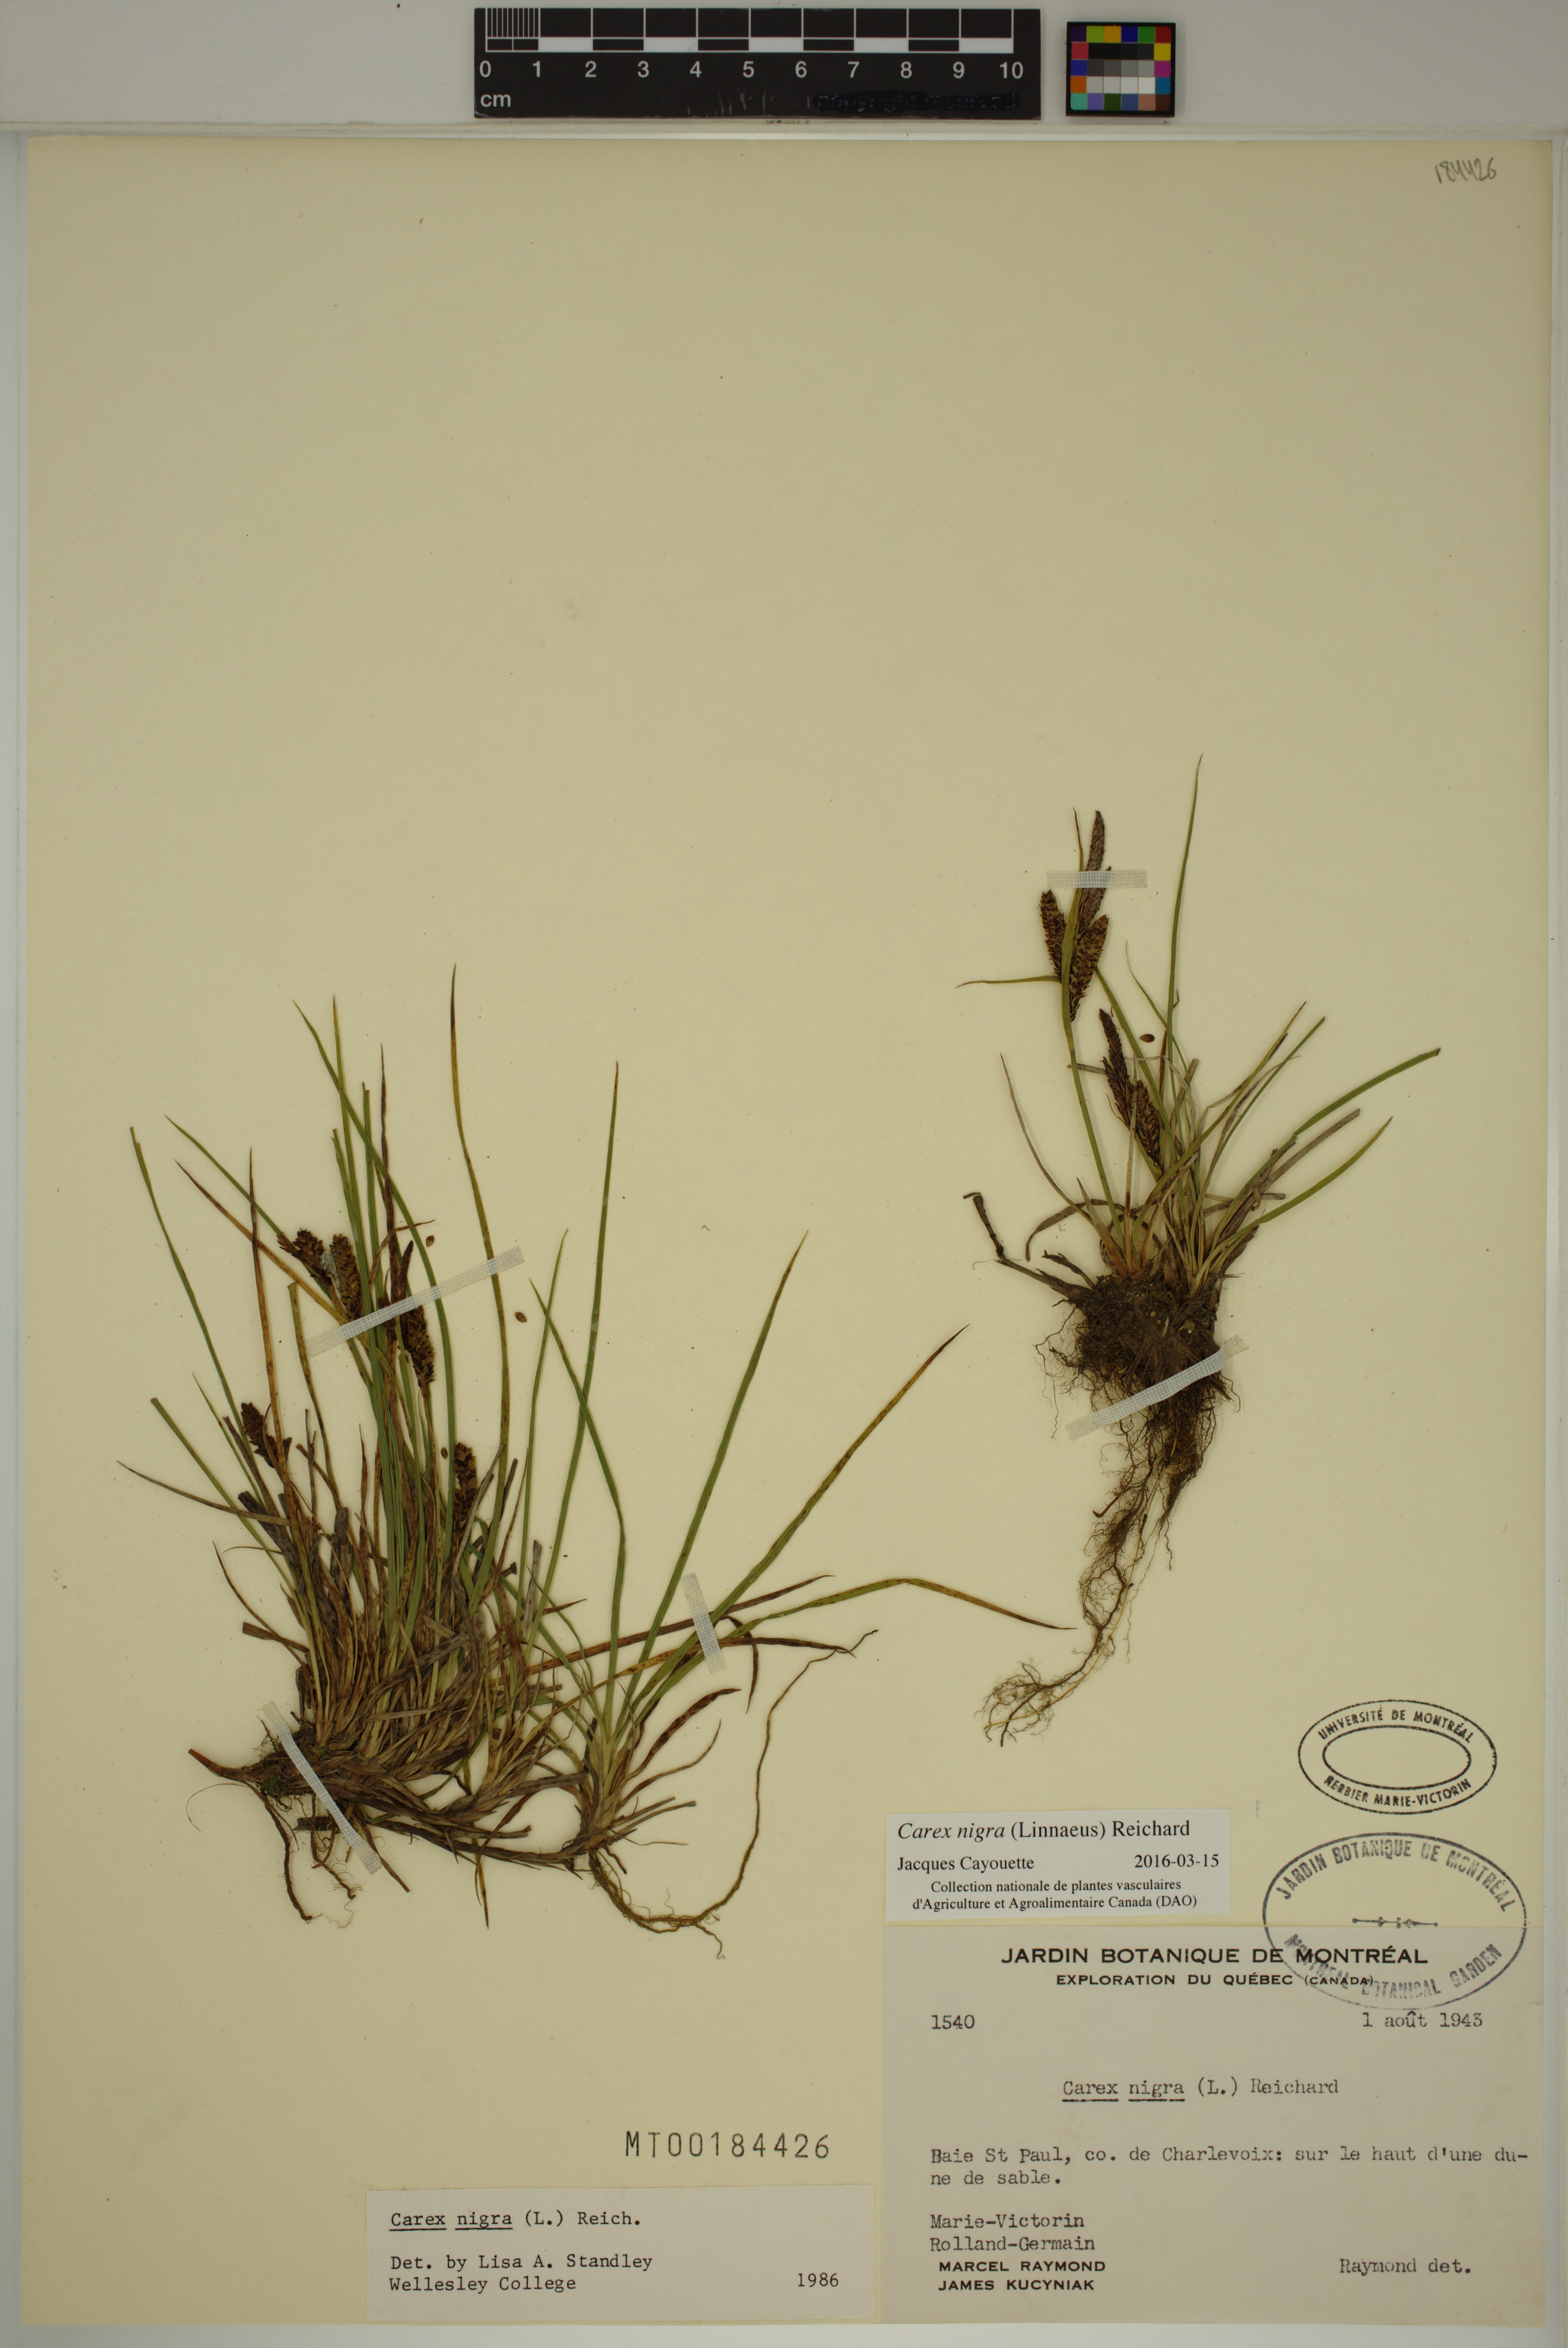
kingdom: Plantae
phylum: Tracheophyta
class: Liliopsida
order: Poales
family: Cyperaceae
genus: Carex
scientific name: Carex nigra
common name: Common sedge
